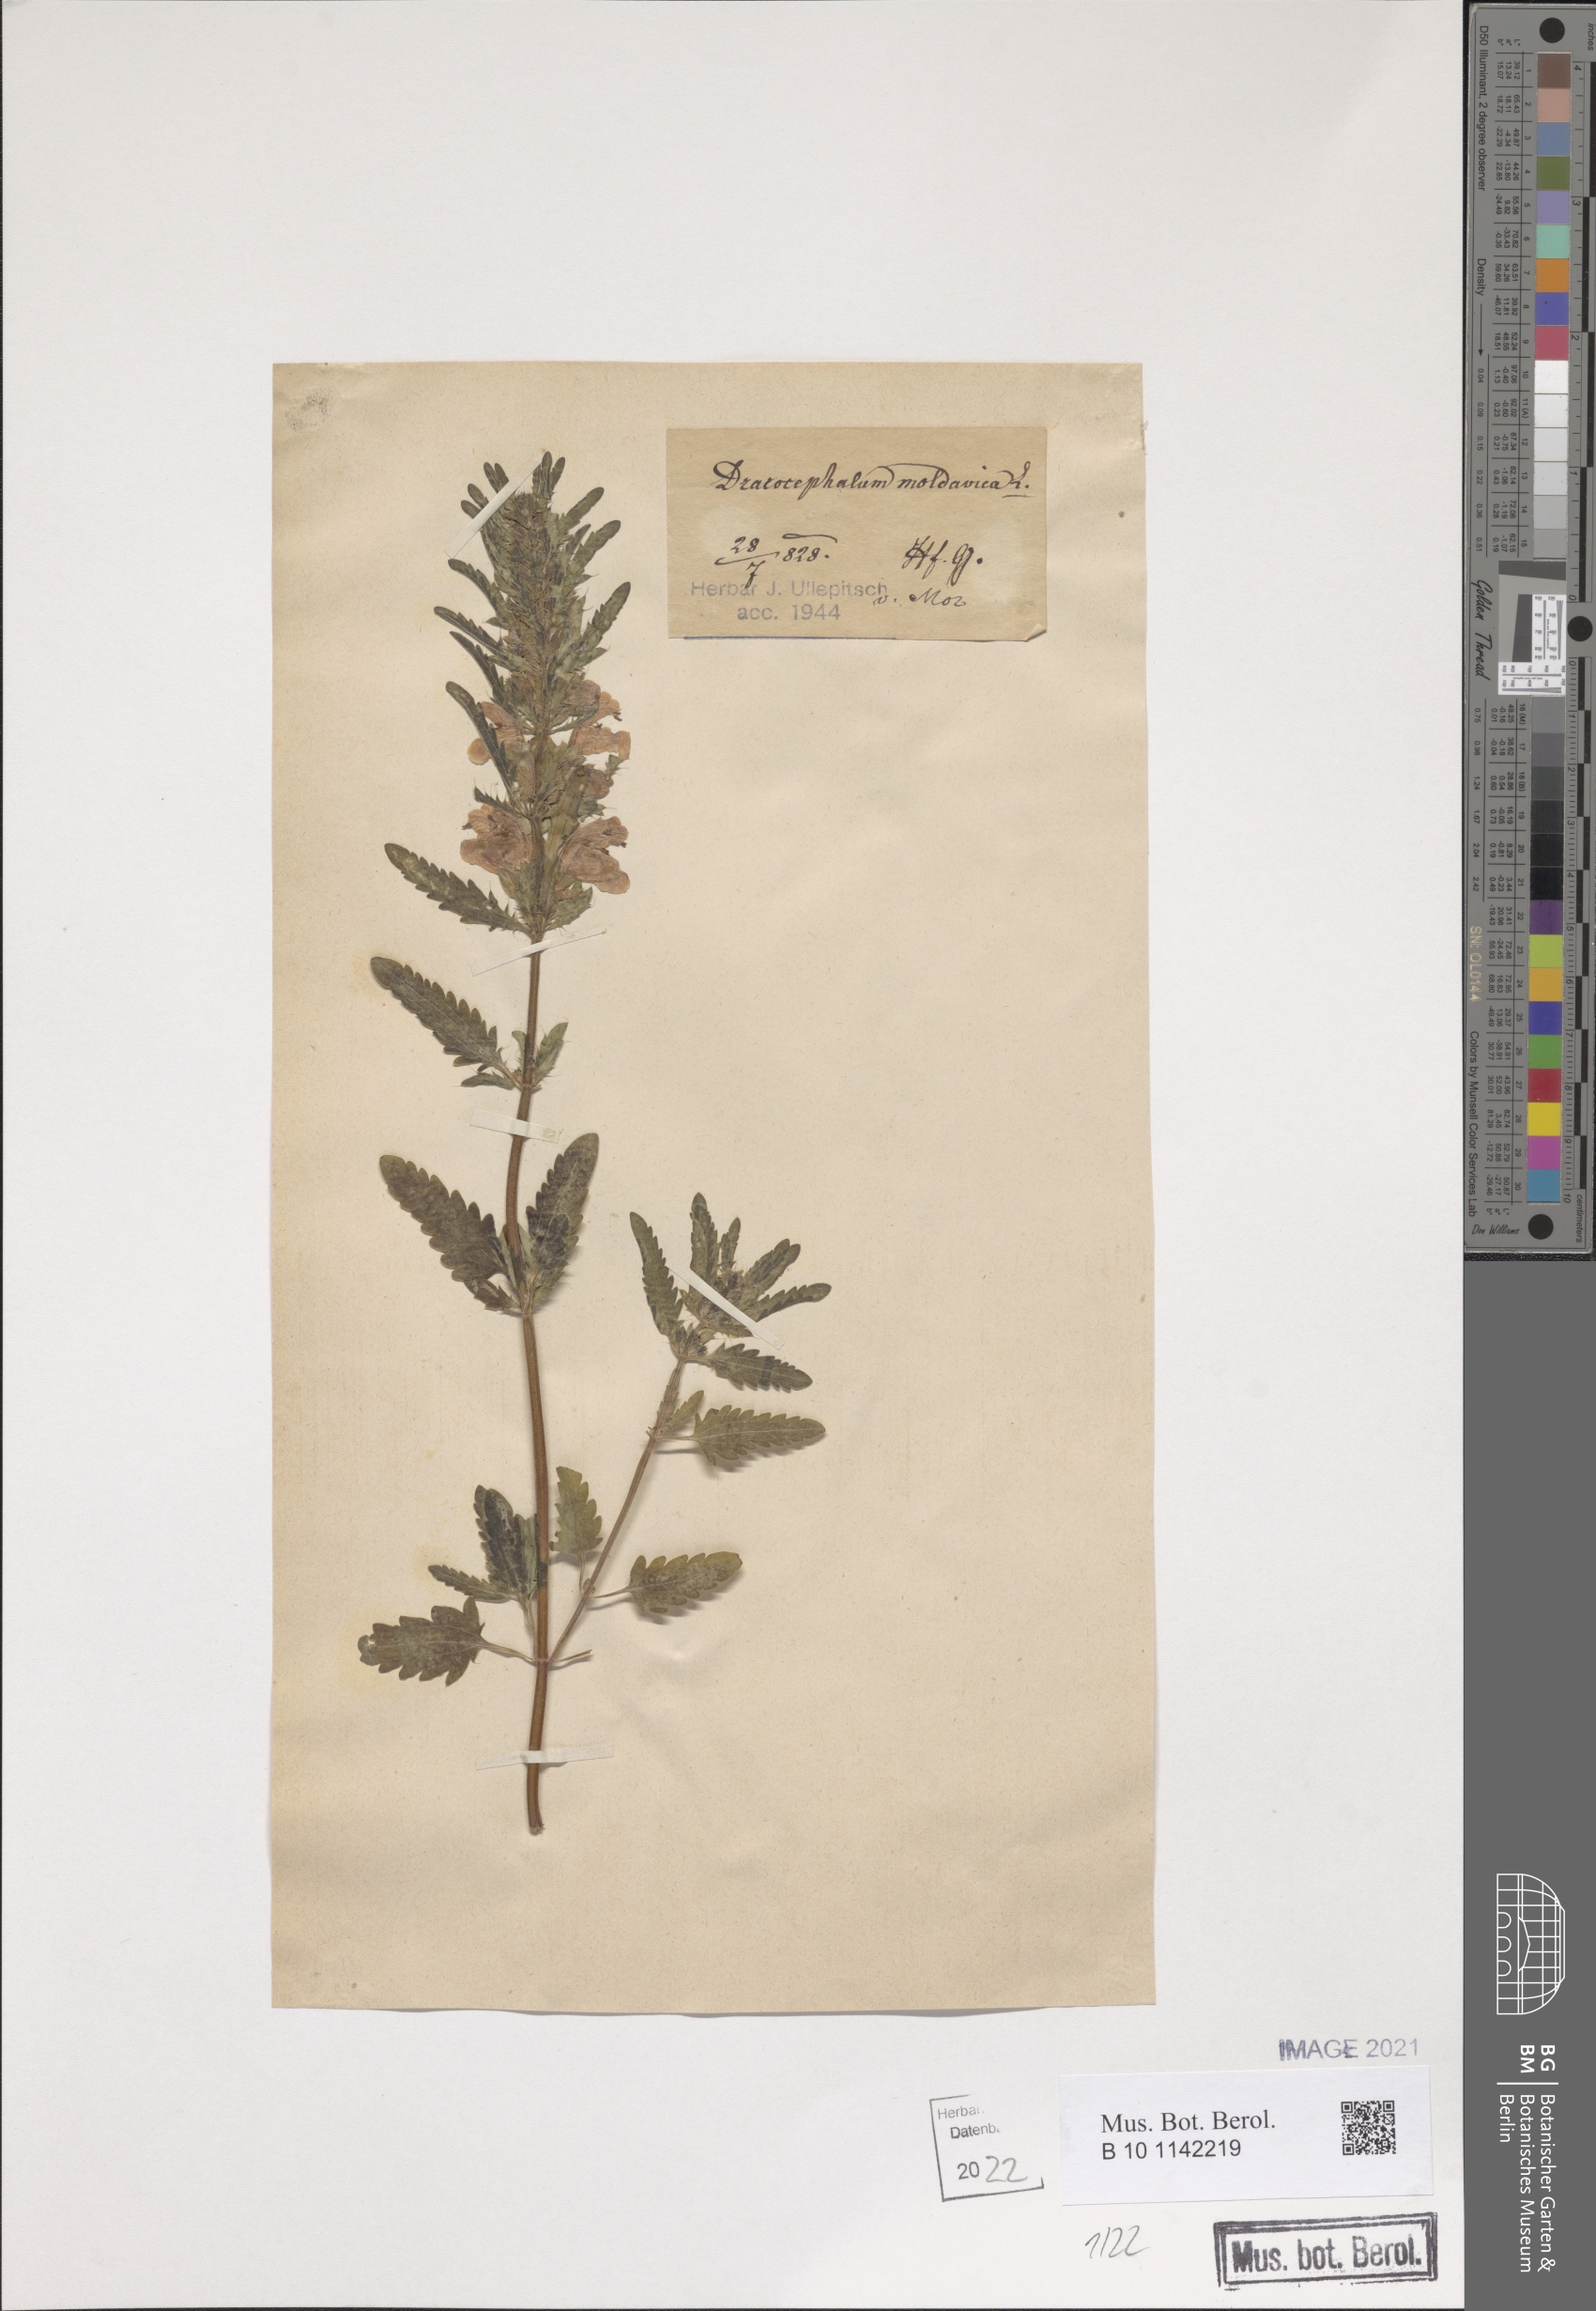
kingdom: Plantae
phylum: Tracheophyta
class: Magnoliopsida
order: Lamiales
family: Lamiaceae
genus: Dracocephalum
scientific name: Dracocephalum moldavica
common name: Moldavian dragonhead
